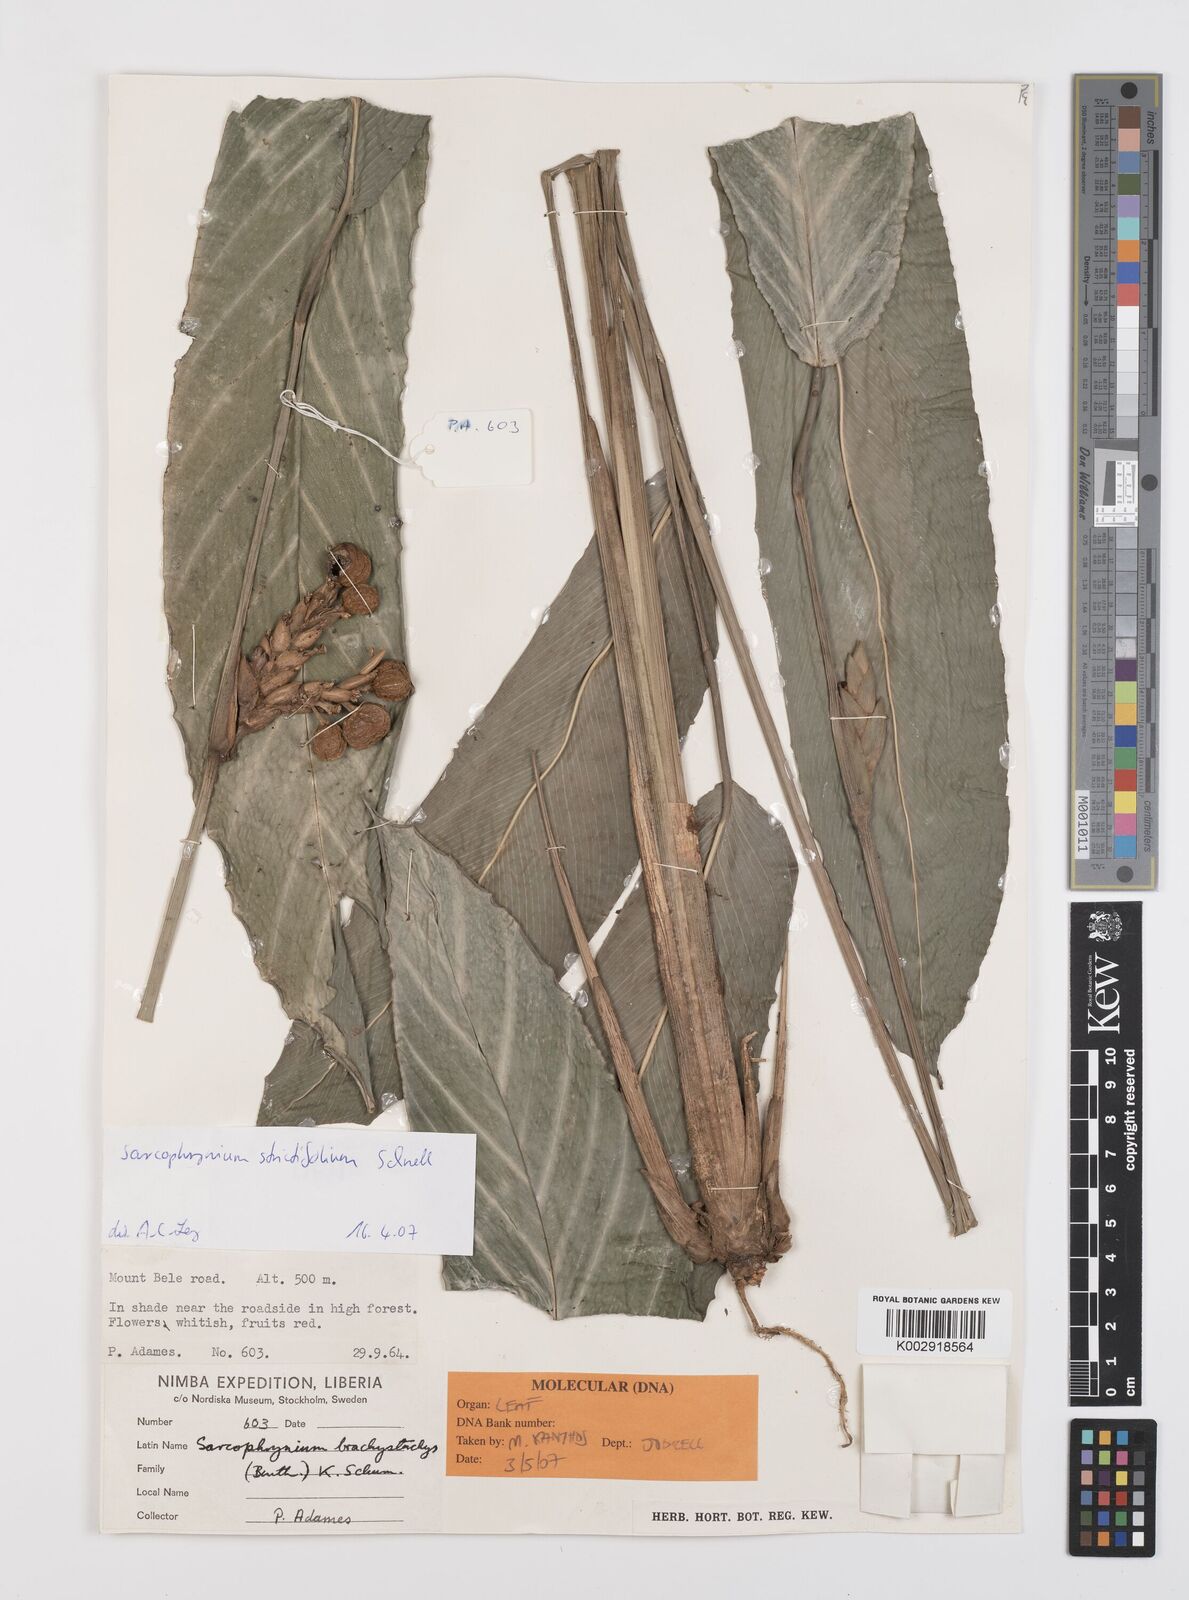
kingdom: Plantae
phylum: Tracheophyta
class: Liliopsida
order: Zingiberales
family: Marantaceae
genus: Sarcophrynium
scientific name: Sarcophrynium brachystachyum
